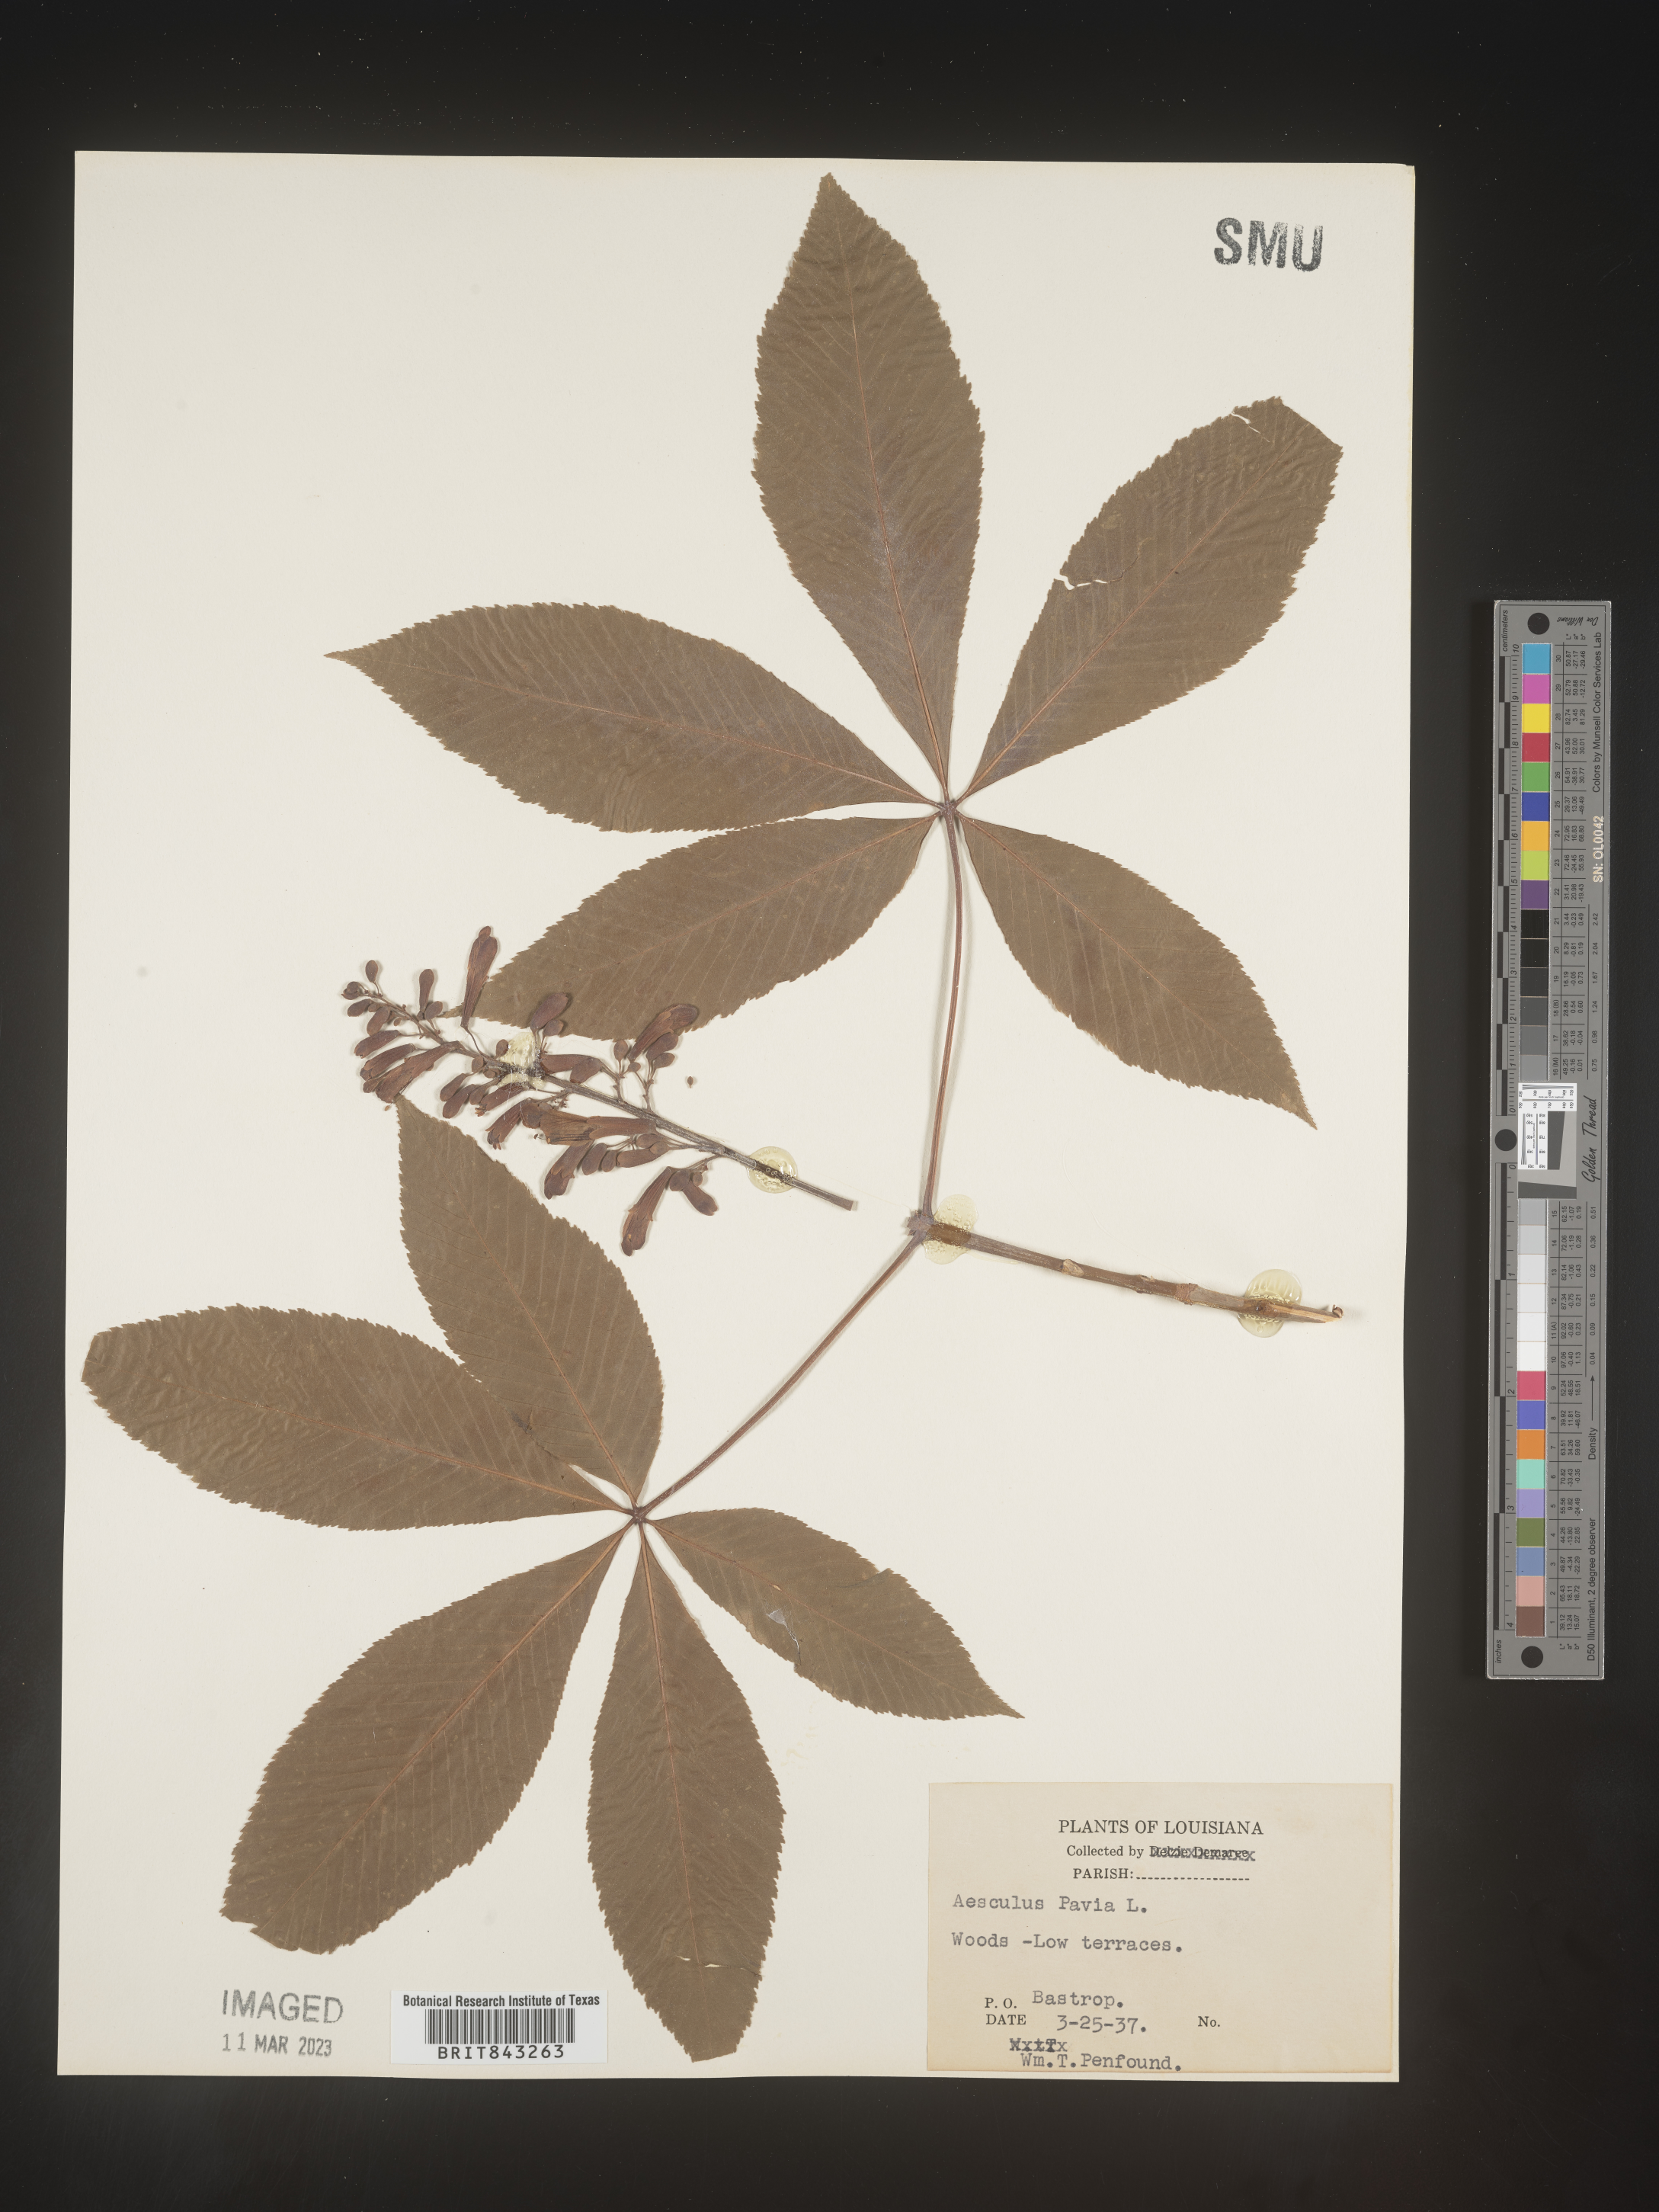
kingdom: Plantae
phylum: Tracheophyta
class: Magnoliopsida
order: Sapindales
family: Sapindaceae
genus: Aesculus
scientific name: Aesculus pavia
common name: Red buckeye
